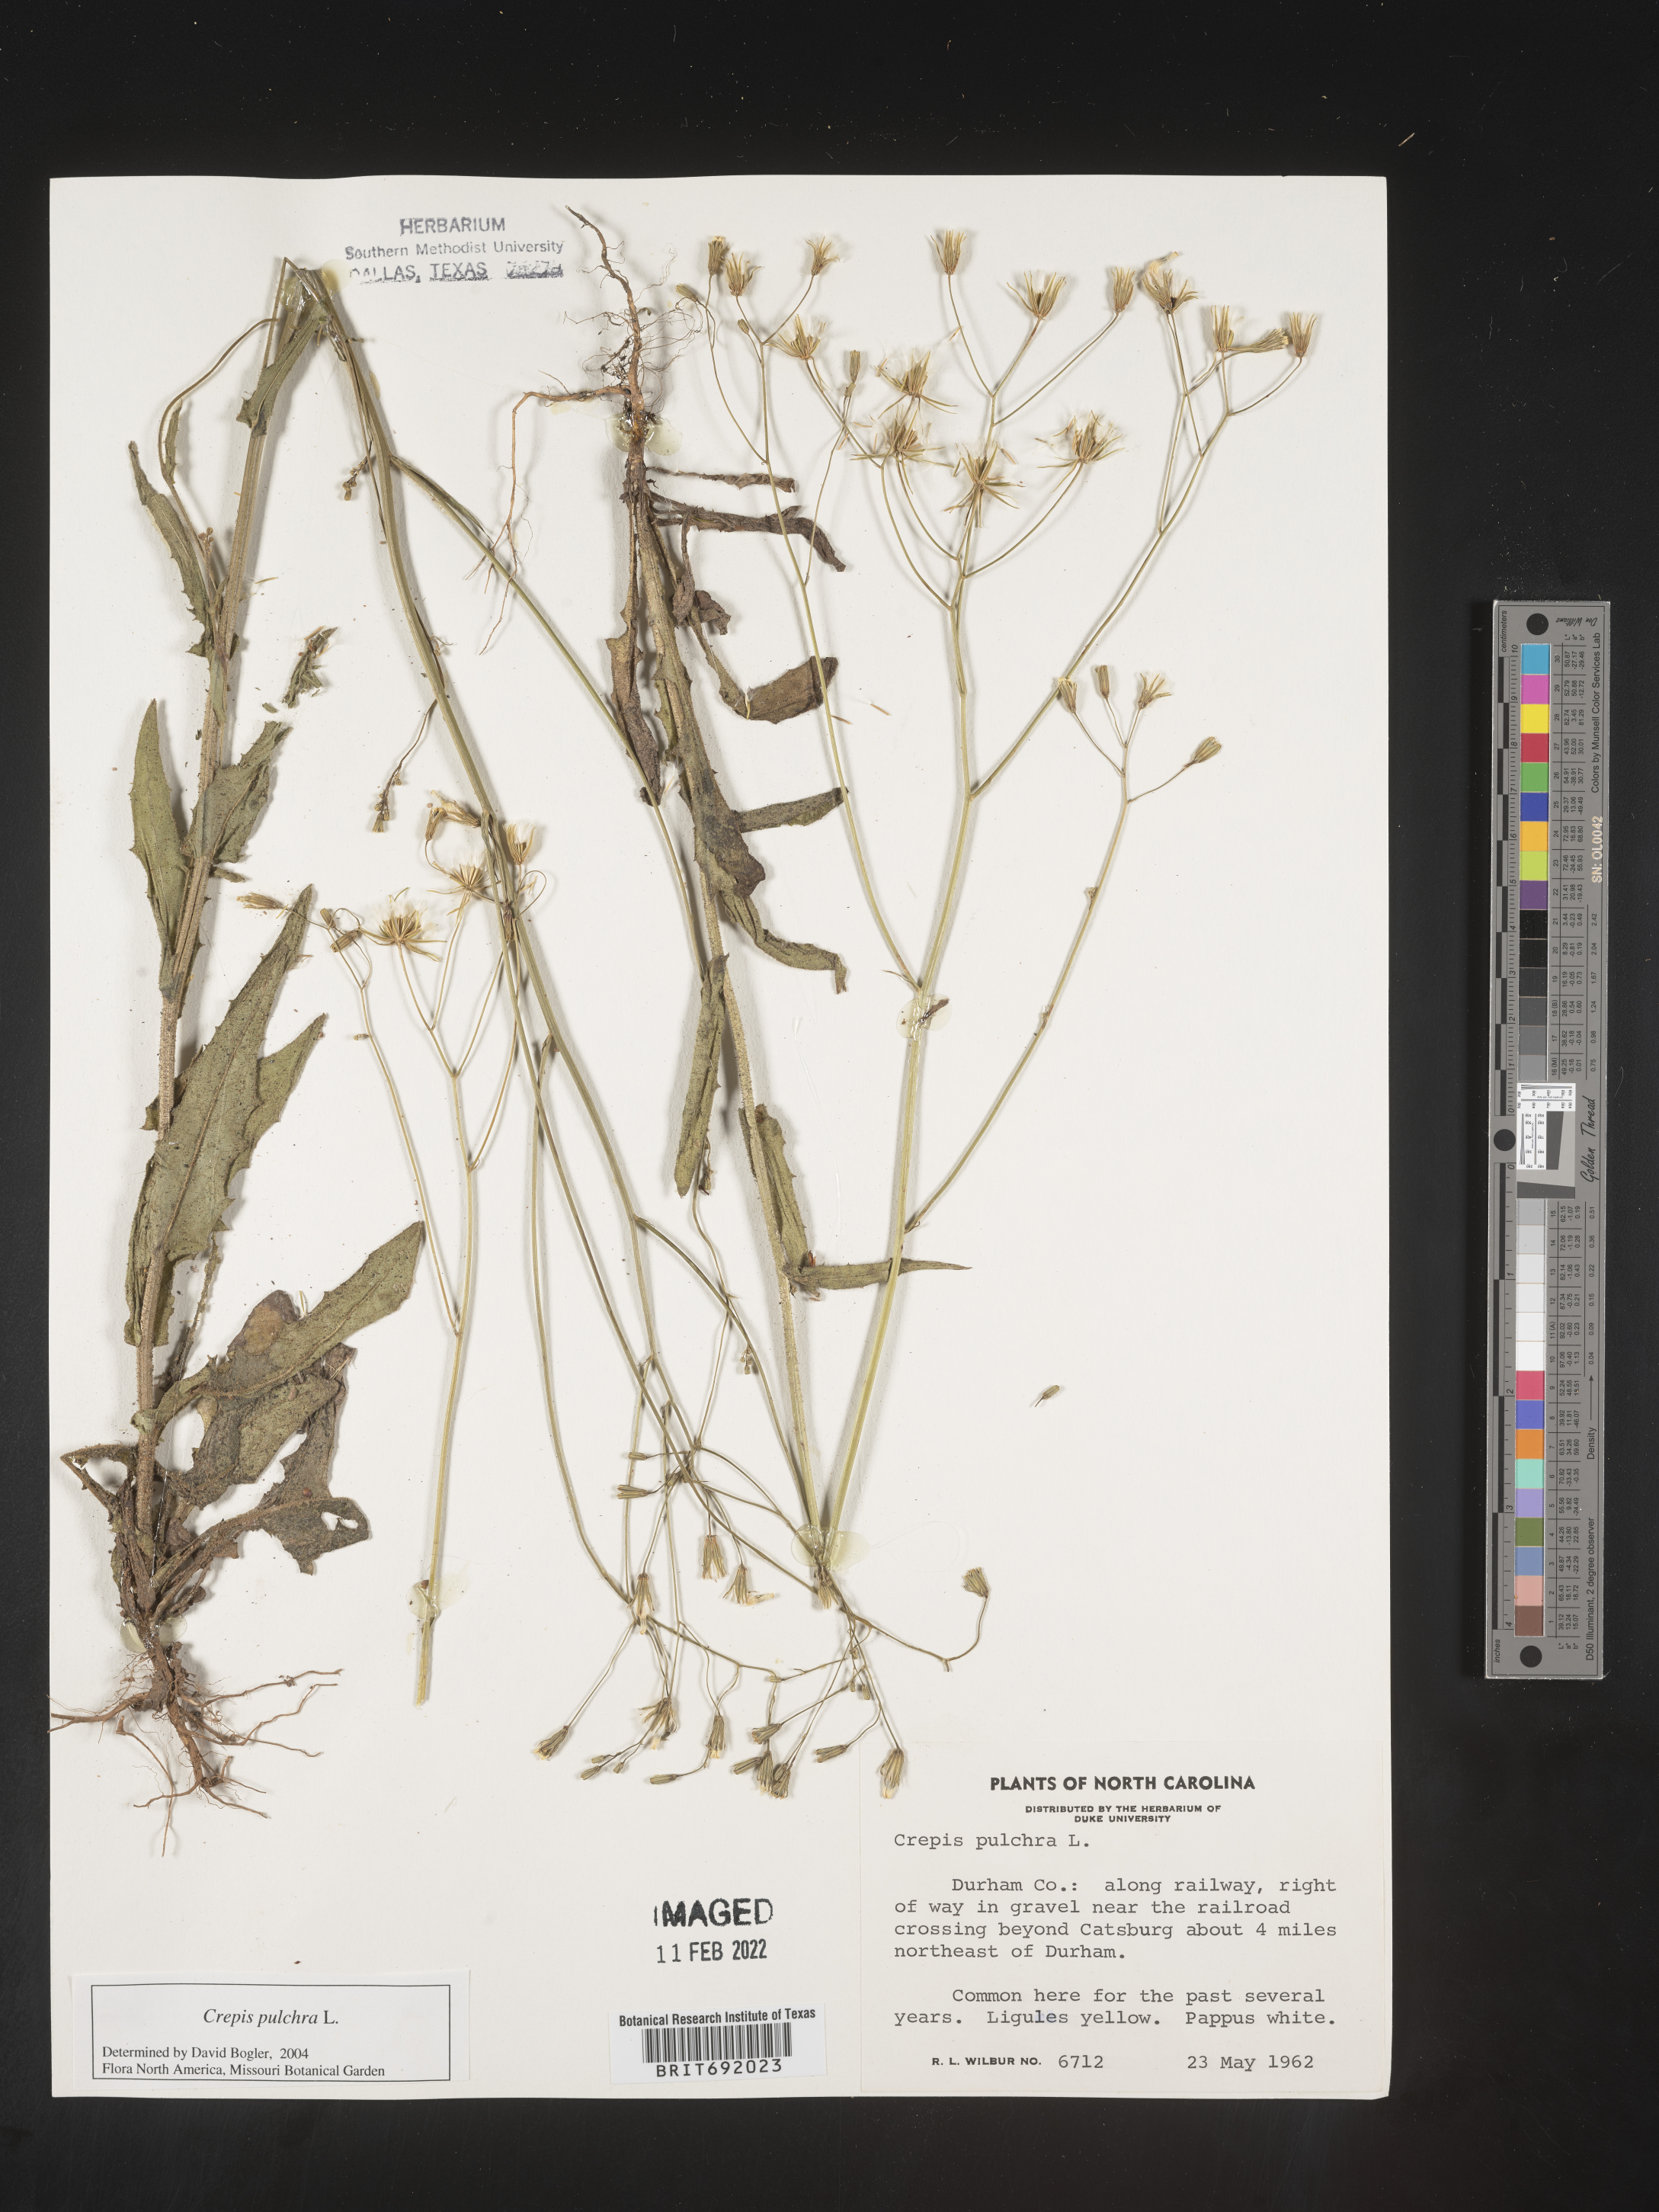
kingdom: Plantae
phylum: Tracheophyta
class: Magnoliopsida
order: Asterales
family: Asteraceae
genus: Crepis
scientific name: Crepis pulchra
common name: Hawk's-beard
